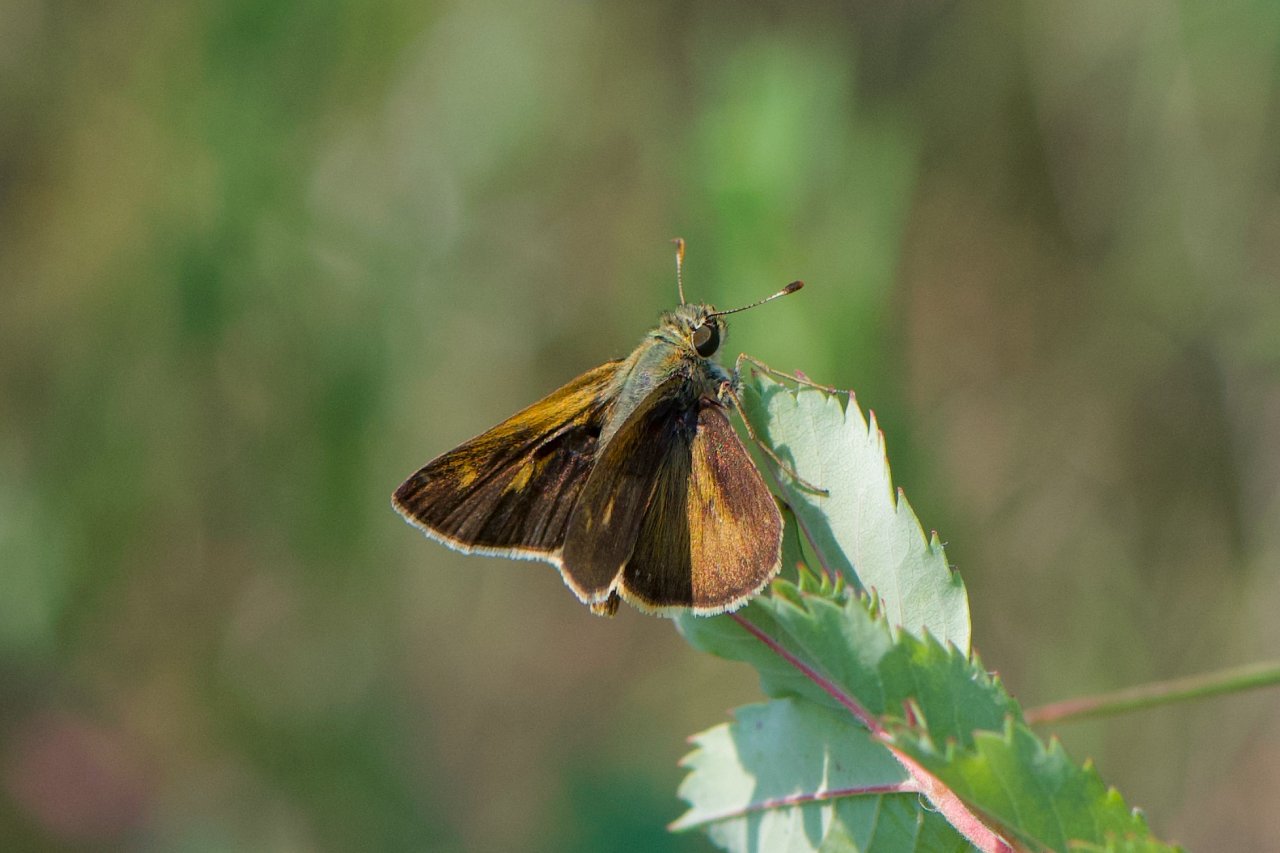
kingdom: Animalia
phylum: Arthropoda
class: Insecta
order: Lepidoptera
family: Hesperiidae
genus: Polites
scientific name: Polites egeremet
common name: Northern Broken-Dash
